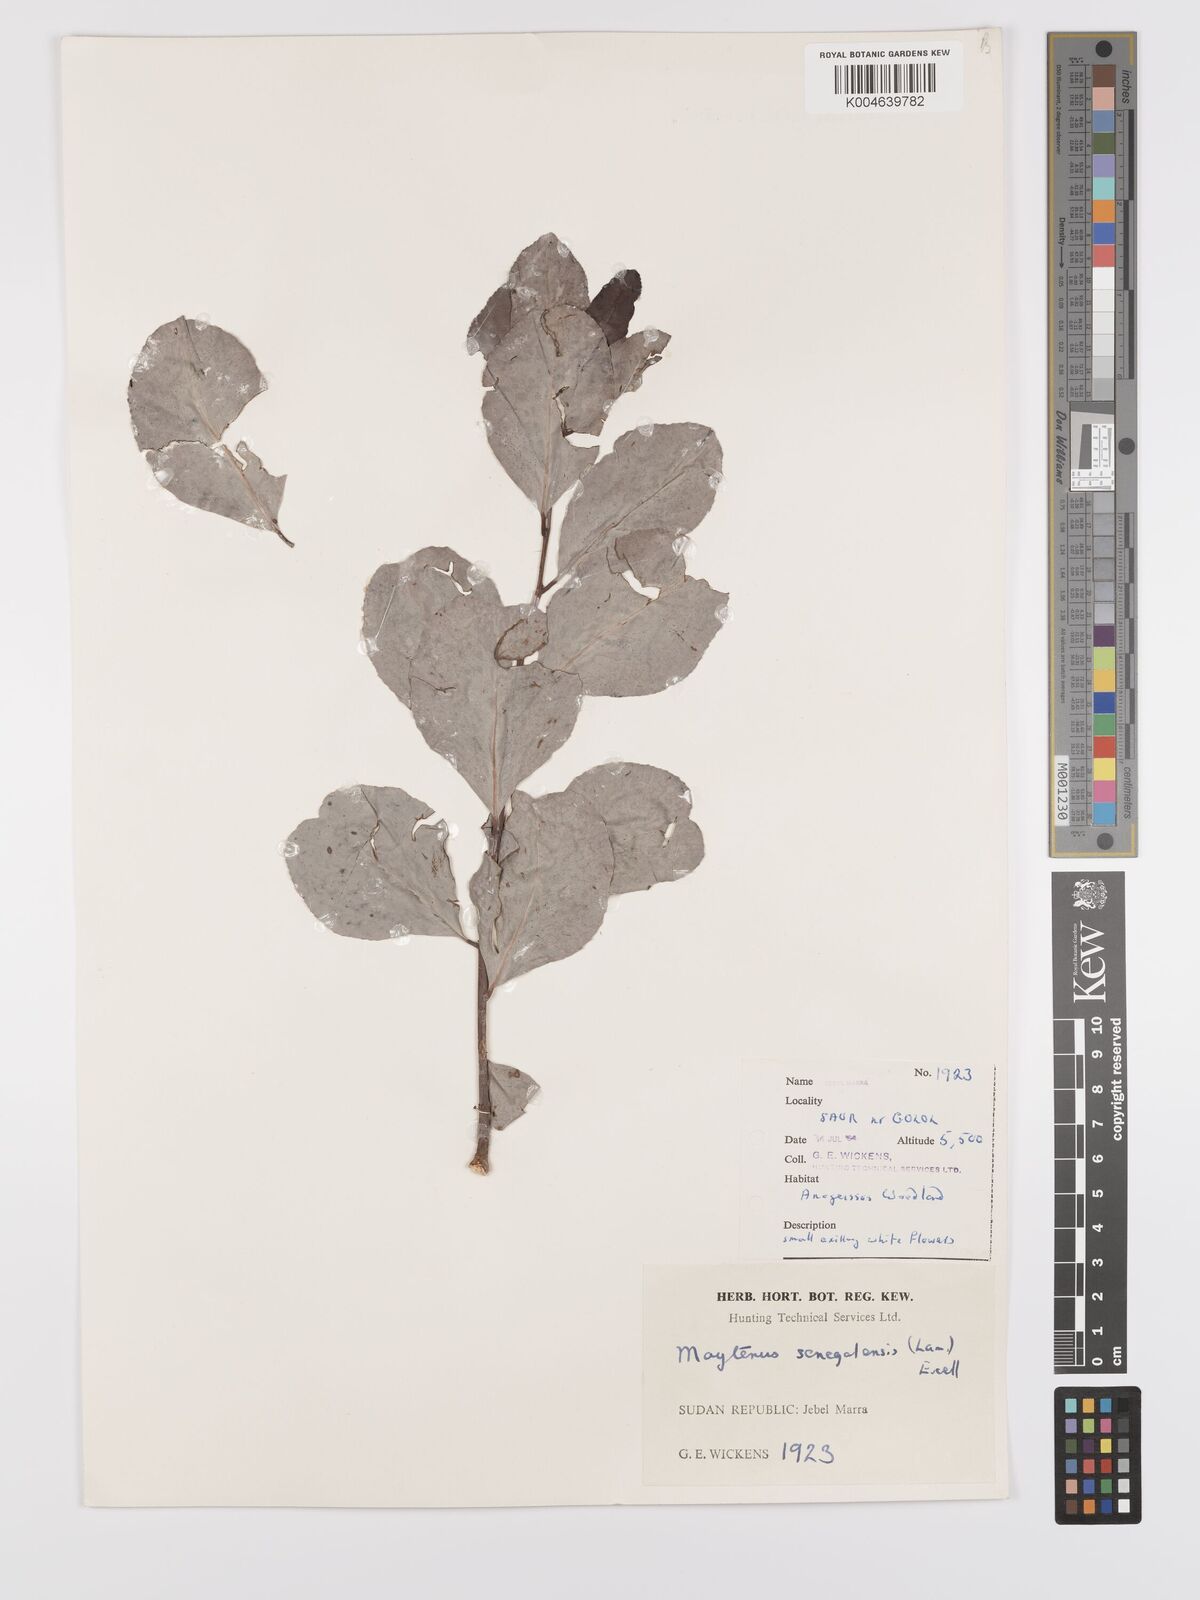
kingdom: Plantae
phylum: Tracheophyta
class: Magnoliopsida
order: Celastrales
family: Celastraceae
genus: Gymnosporia
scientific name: Gymnosporia senegalensis
